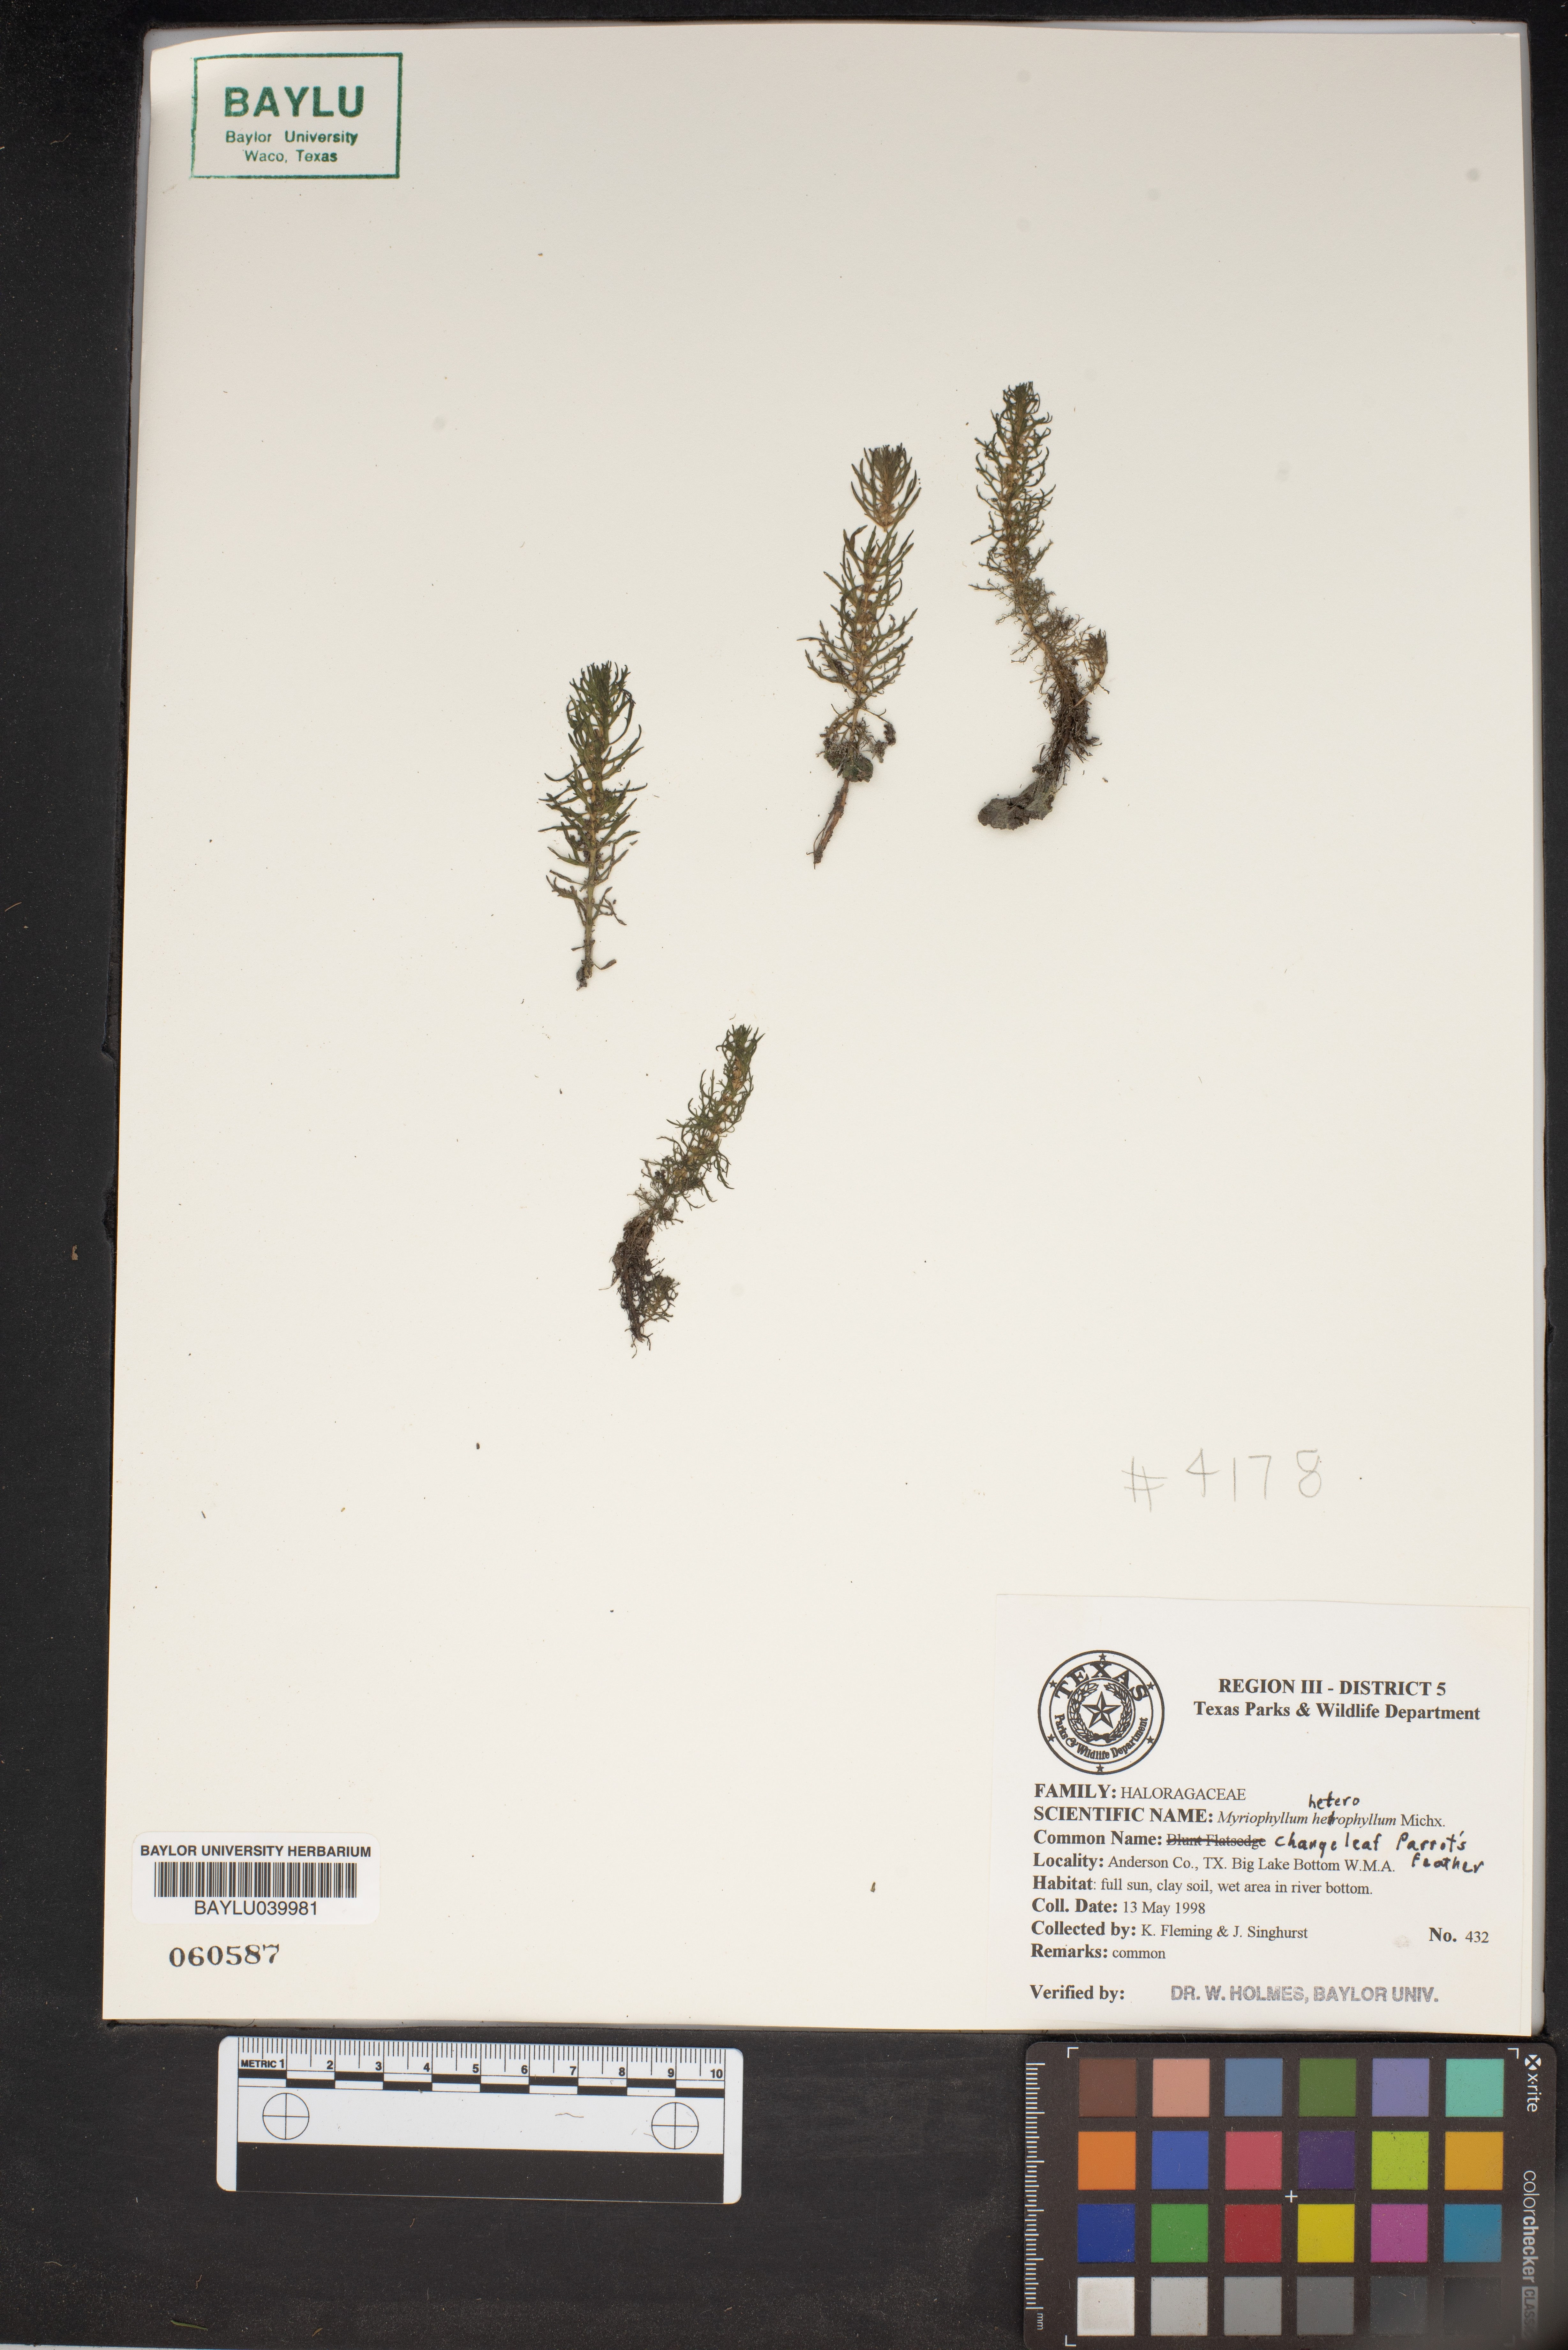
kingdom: Plantae
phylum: Tracheophyta
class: Magnoliopsida
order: Saxifragales
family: Haloragaceae
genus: Myriophyllum
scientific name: Myriophyllum heterophyllum
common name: Variable watermilfoil
